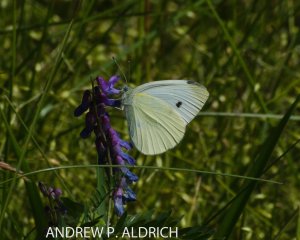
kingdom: Animalia
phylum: Arthropoda
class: Insecta
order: Lepidoptera
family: Pieridae
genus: Pieris
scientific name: Pieris rapae
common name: Cabbage White
